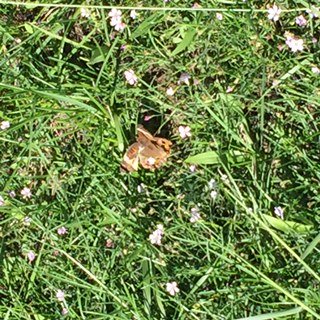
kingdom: Animalia
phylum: Arthropoda
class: Insecta
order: Lepidoptera
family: Nymphalidae
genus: Junonia
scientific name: Junonia coenia
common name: Common Buckeye
